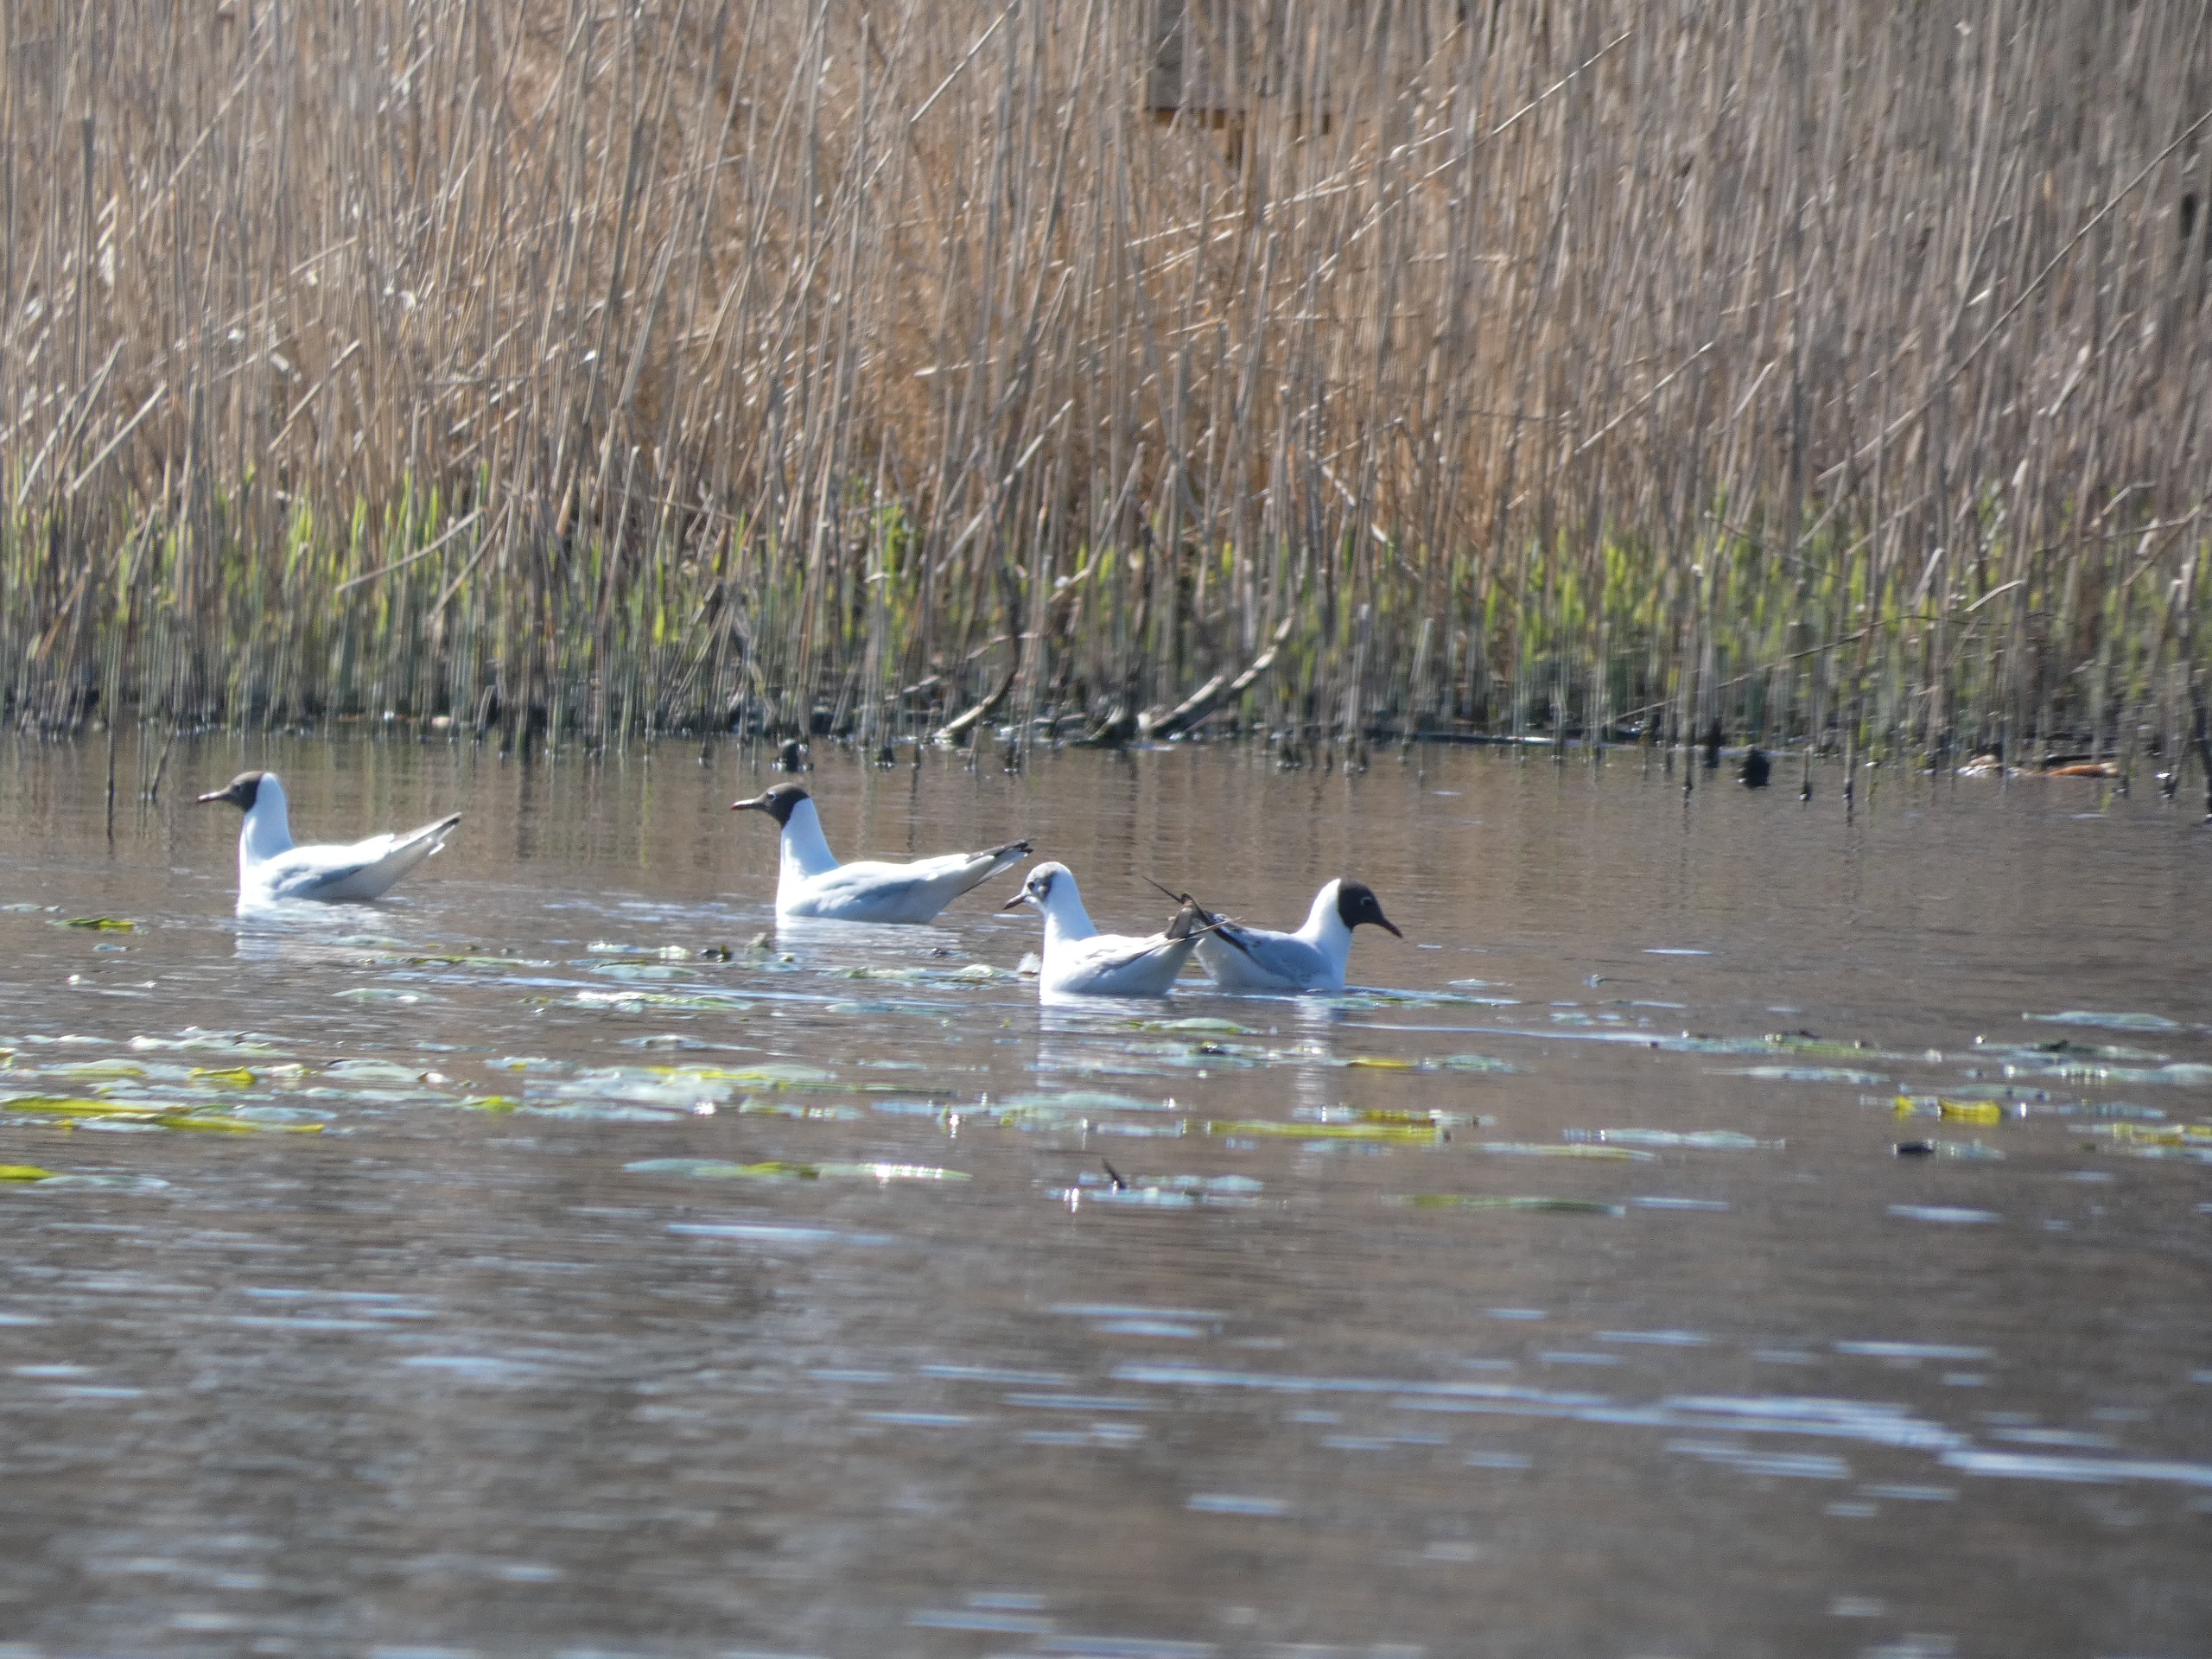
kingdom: Animalia
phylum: Chordata
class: Aves
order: Charadriiformes
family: Laridae
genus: Chroicocephalus
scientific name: Chroicocephalus ridibundus
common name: Hættemåge
